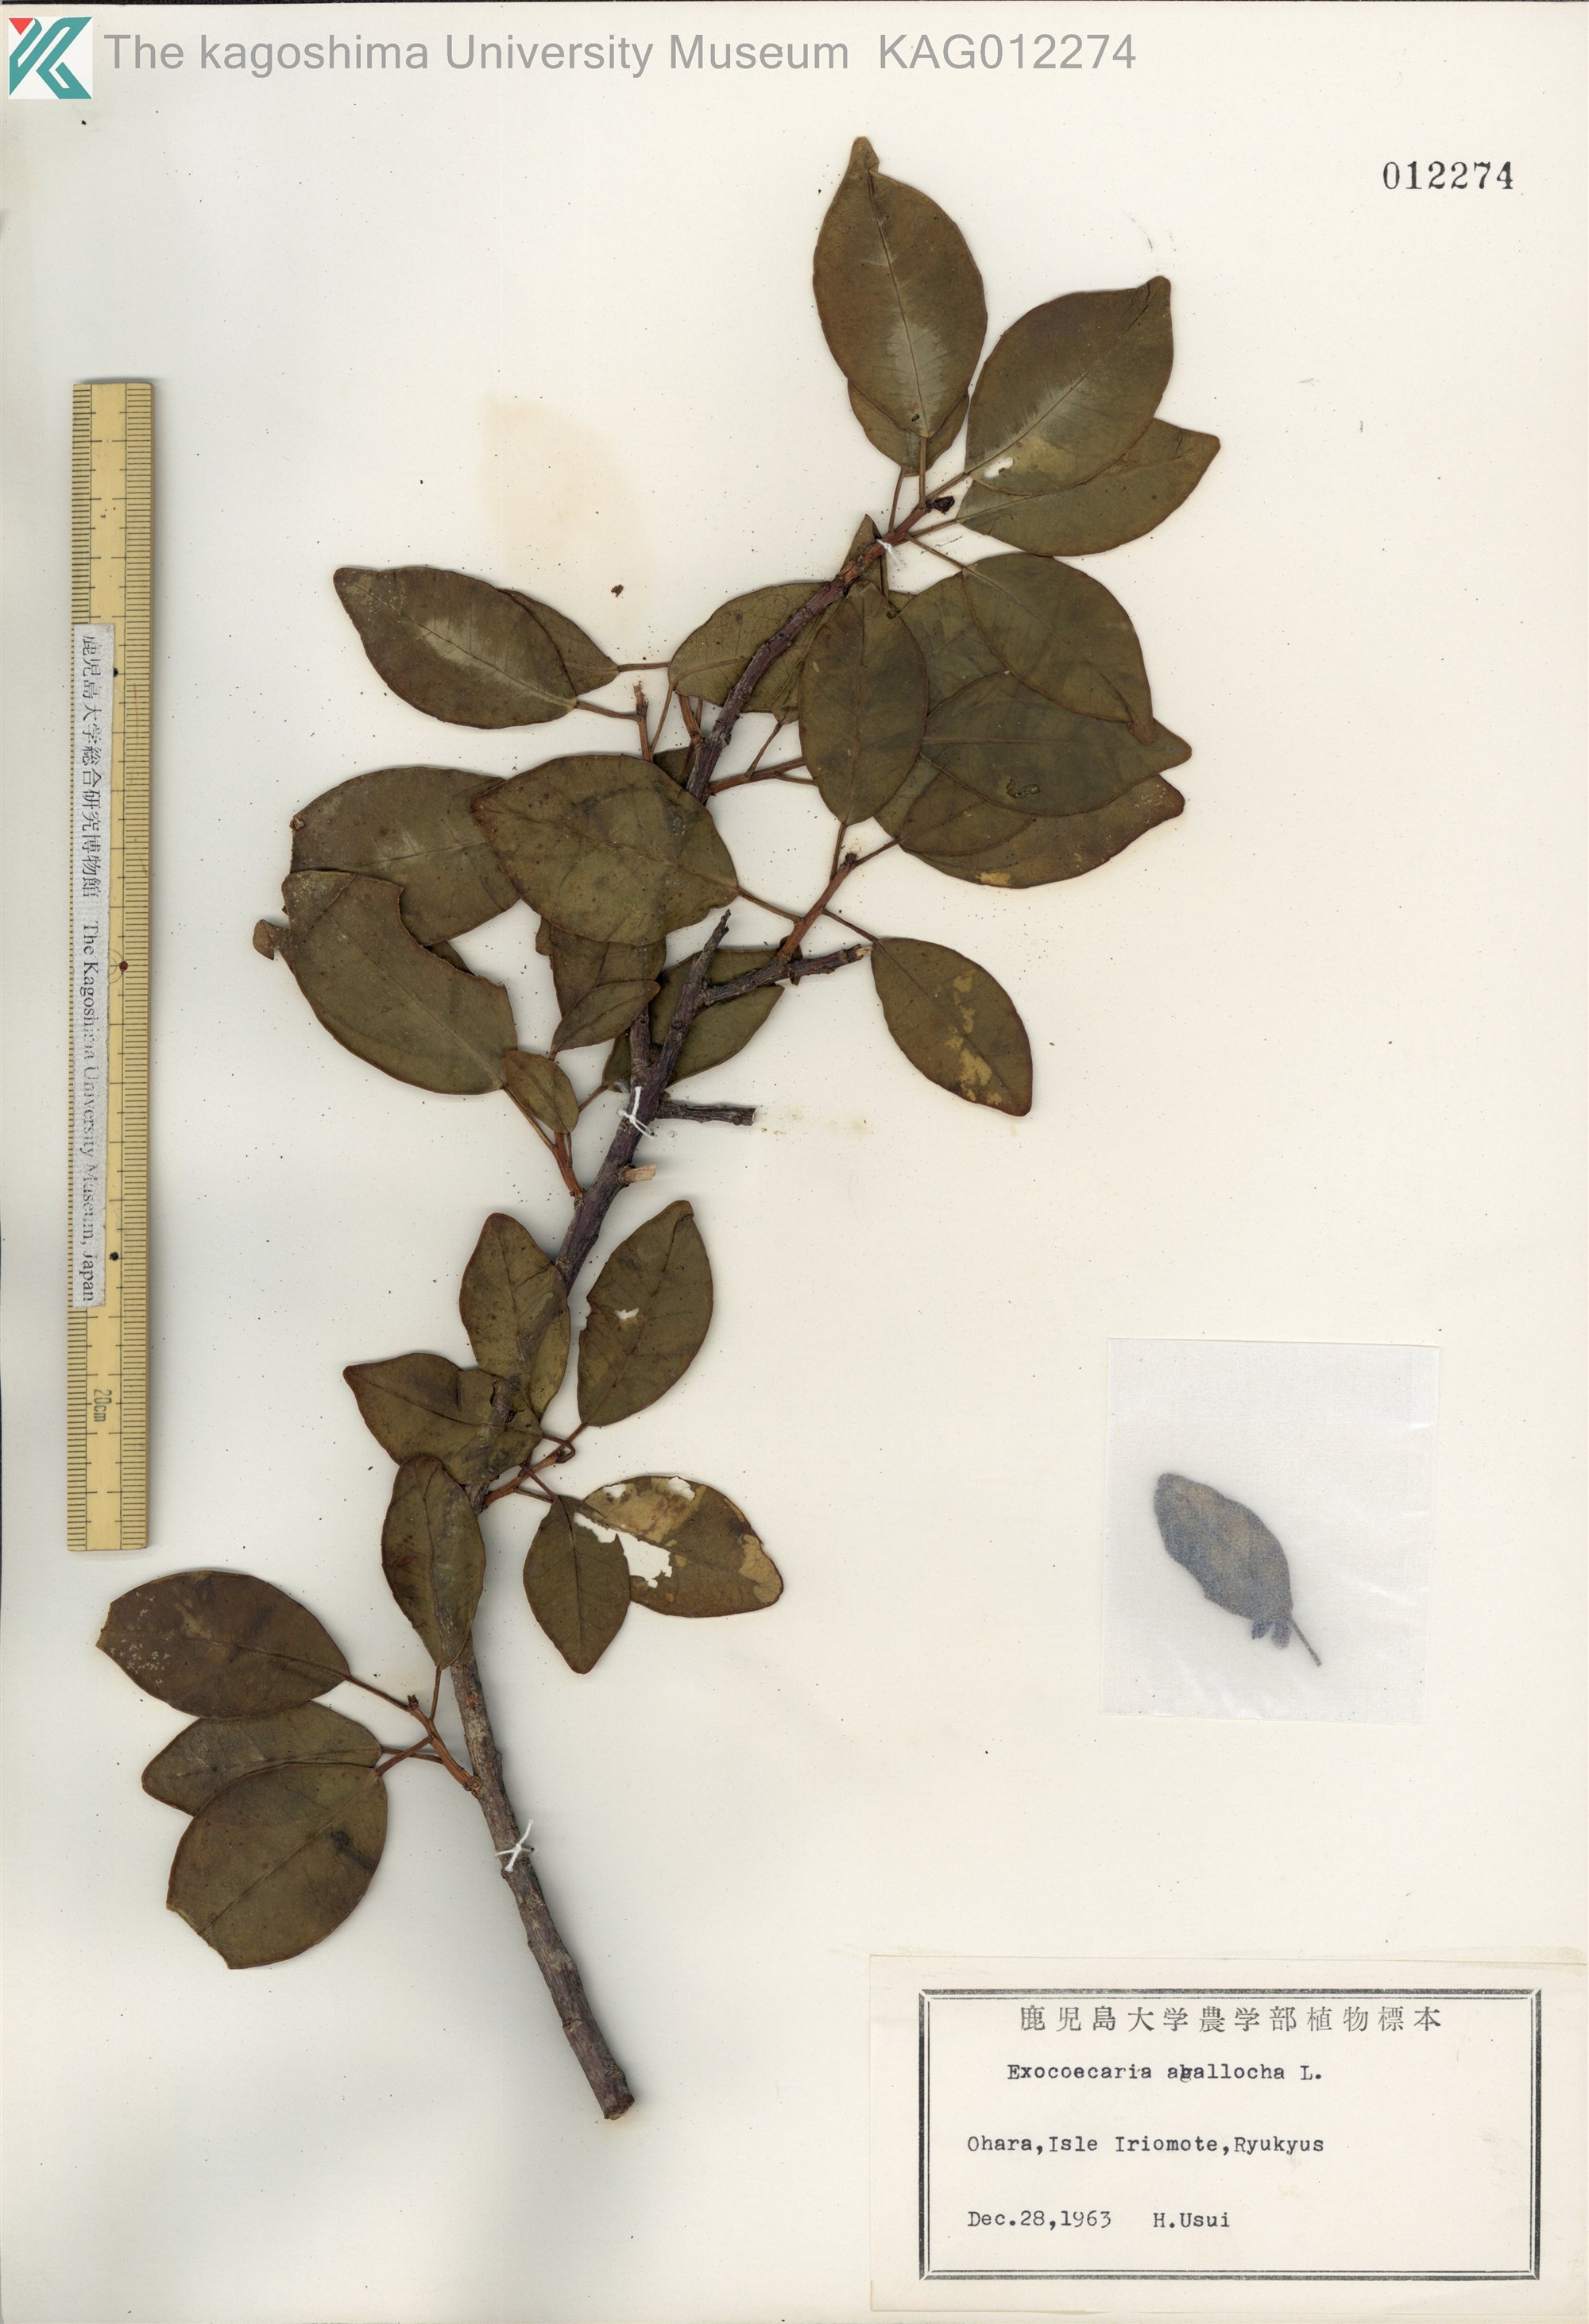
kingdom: Plantae
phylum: Tracheophyta
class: Magnoliopsida
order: Malpighiales
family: Euphorbiaceae
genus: Excoecaria
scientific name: Excoecaria agallocha
